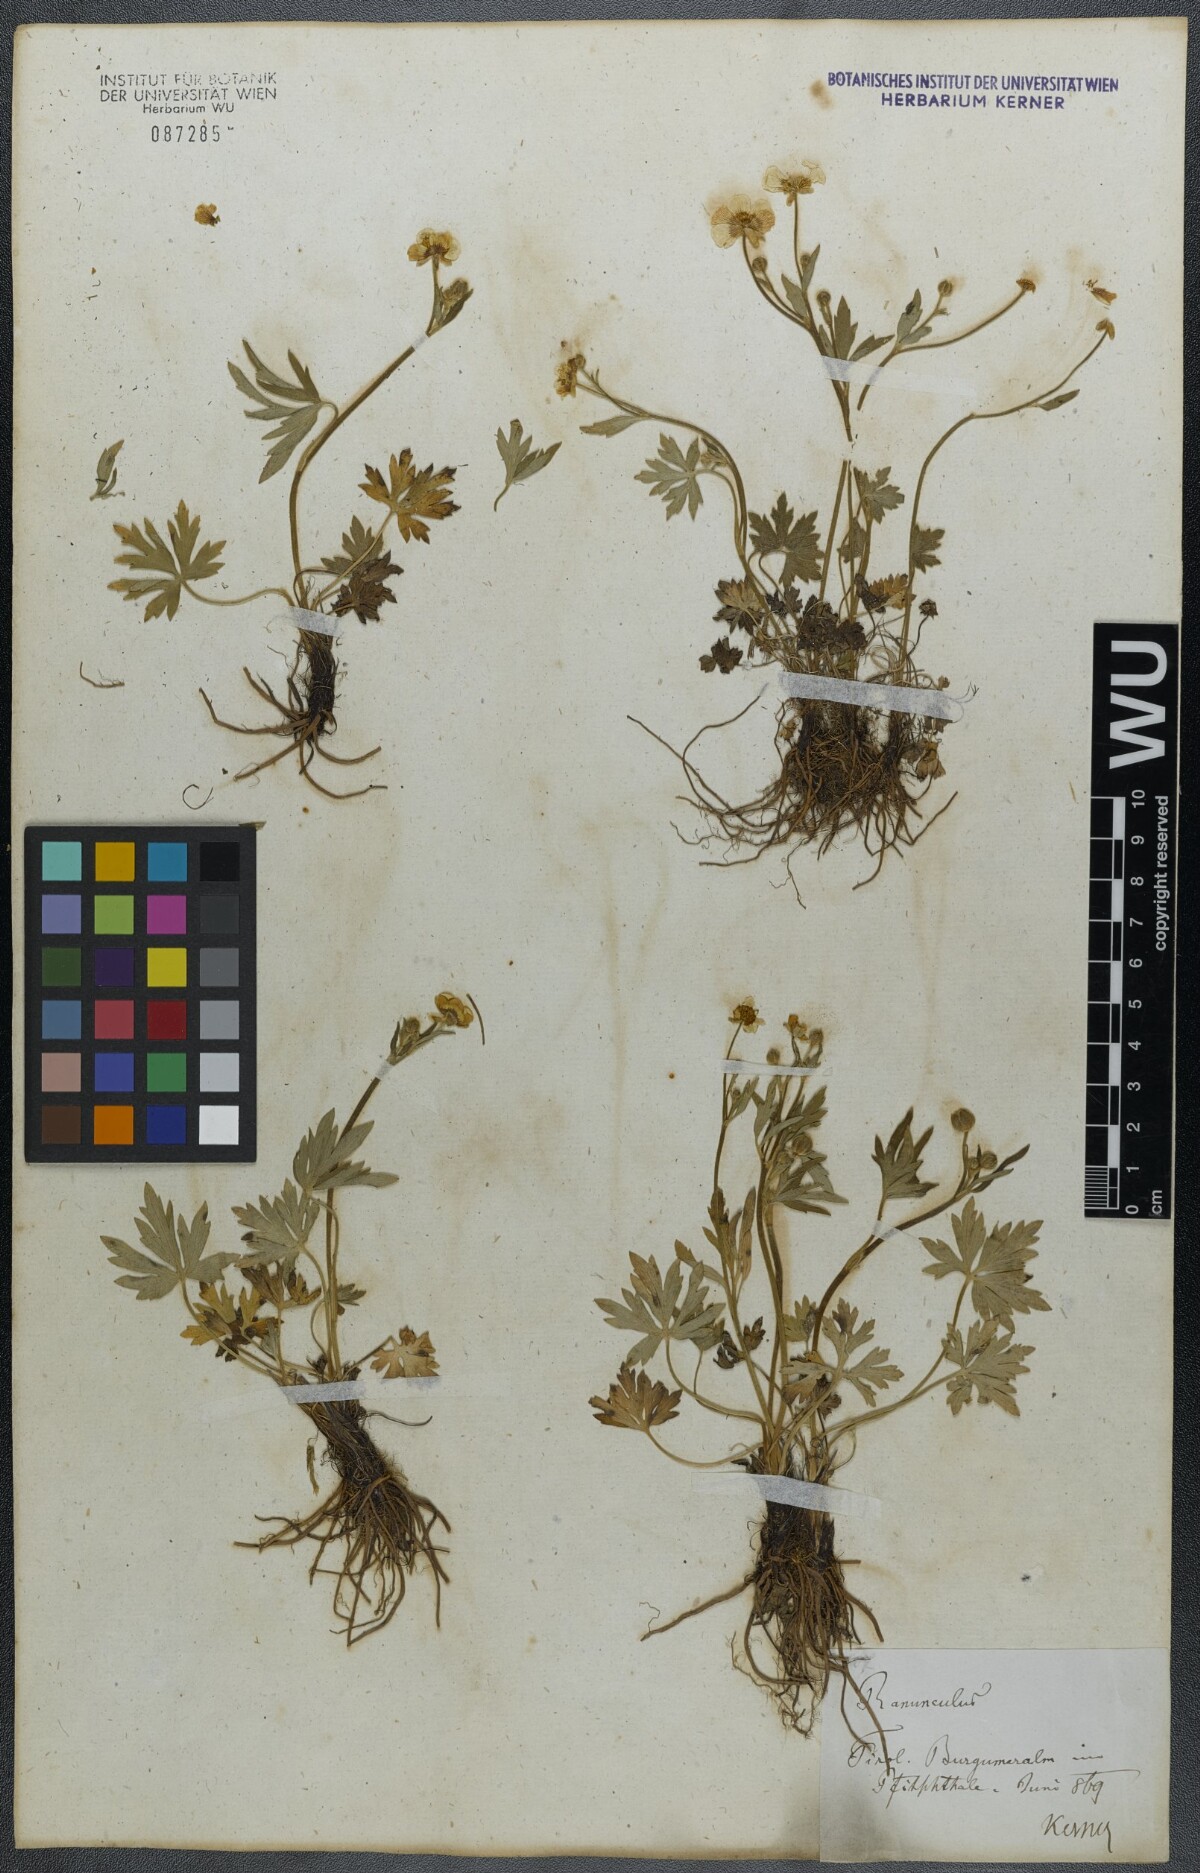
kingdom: Plantae
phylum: Tracheophyta
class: Magnoliopsida
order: Ranunculales
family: Ranunculaceae
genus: Ranunculus
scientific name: Ranunculus acris
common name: Meadow buttercup
